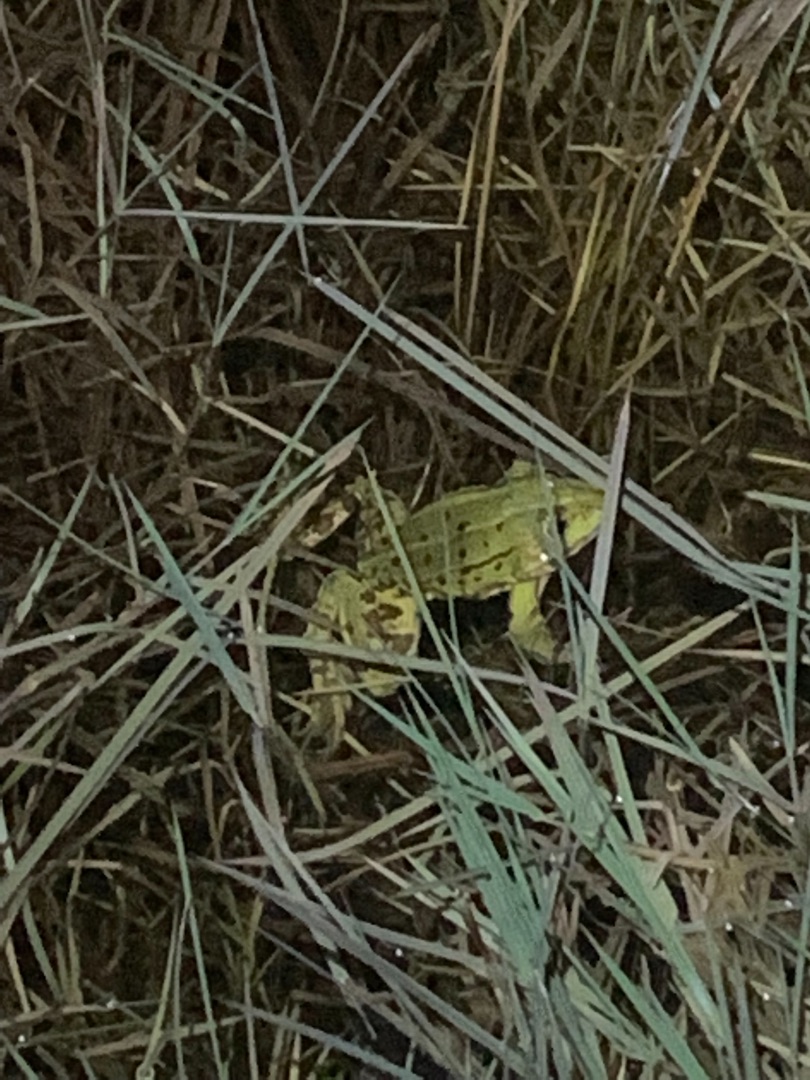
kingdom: Animalia
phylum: Chordata
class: Amphibia
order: Anura
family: Ranidae
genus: Pelophylax
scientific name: Pelophylax lessonae
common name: Grøn frø
